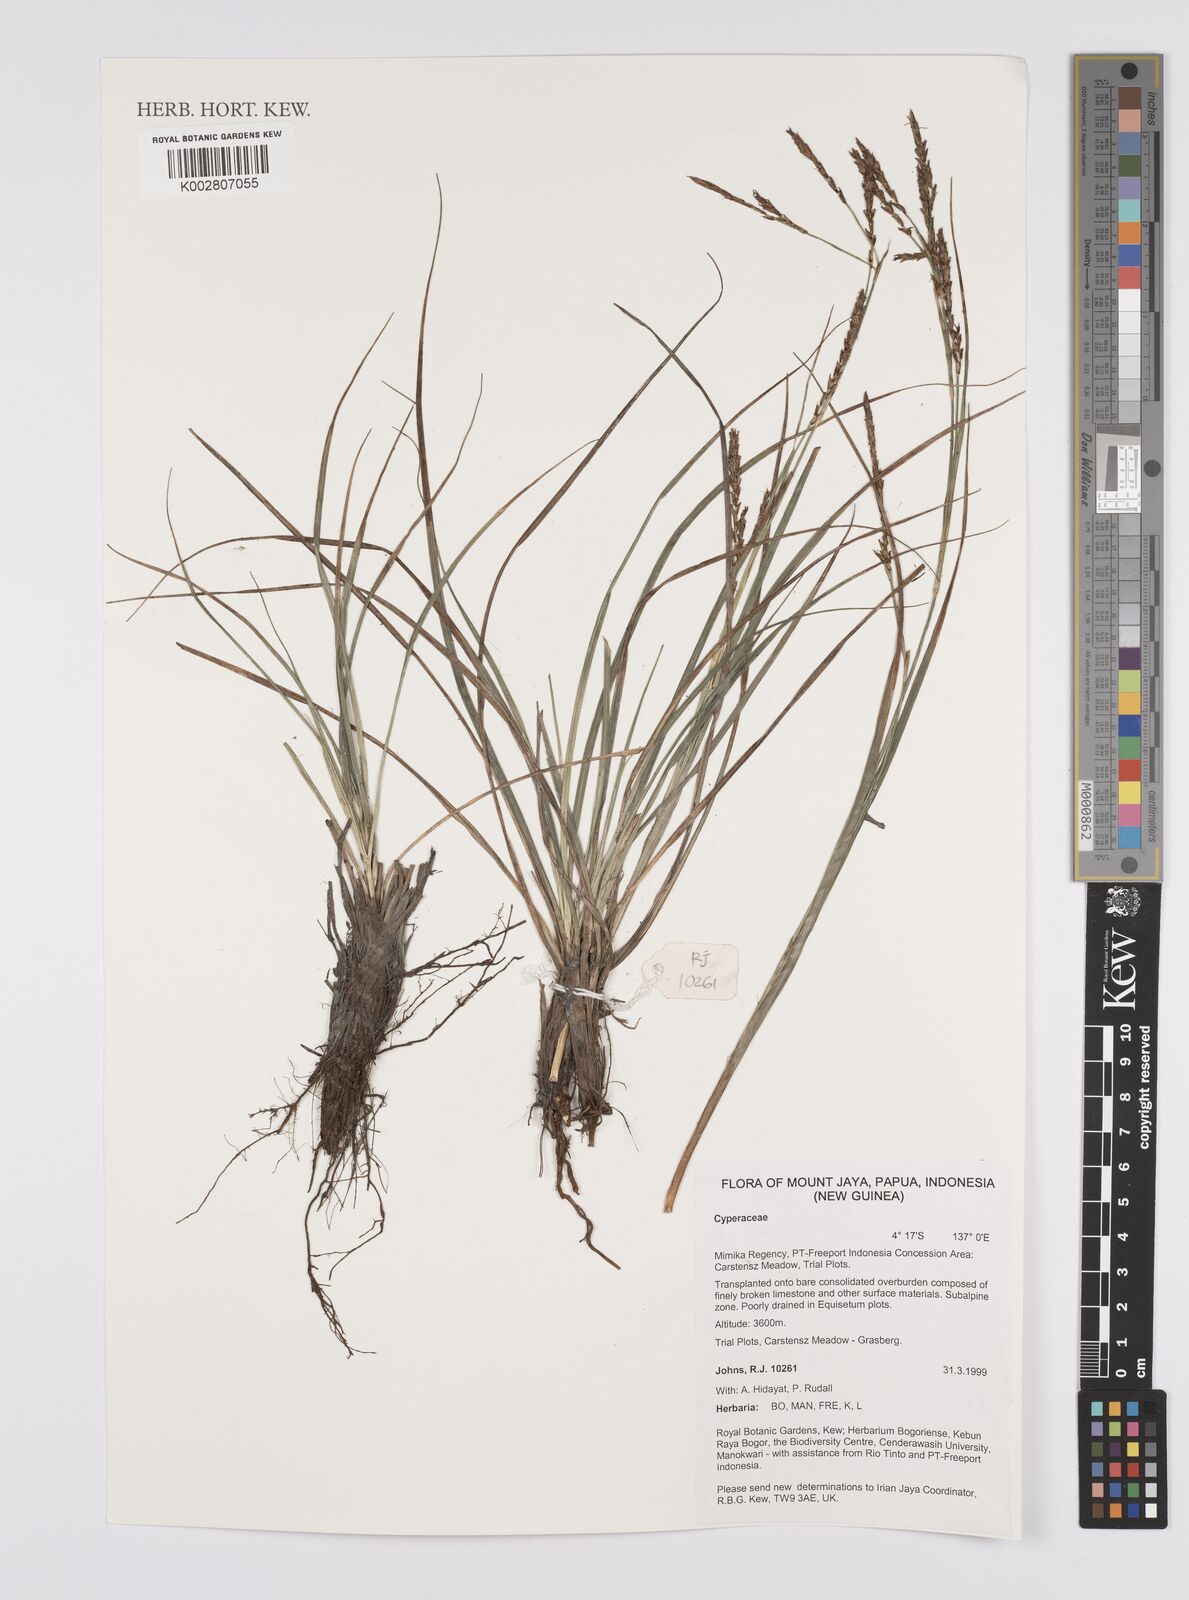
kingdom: Plantae
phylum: Tracheophyta
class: Liliopsida
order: Poales
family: Cyperaceae
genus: Carex
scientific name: Carex brachyanthera
